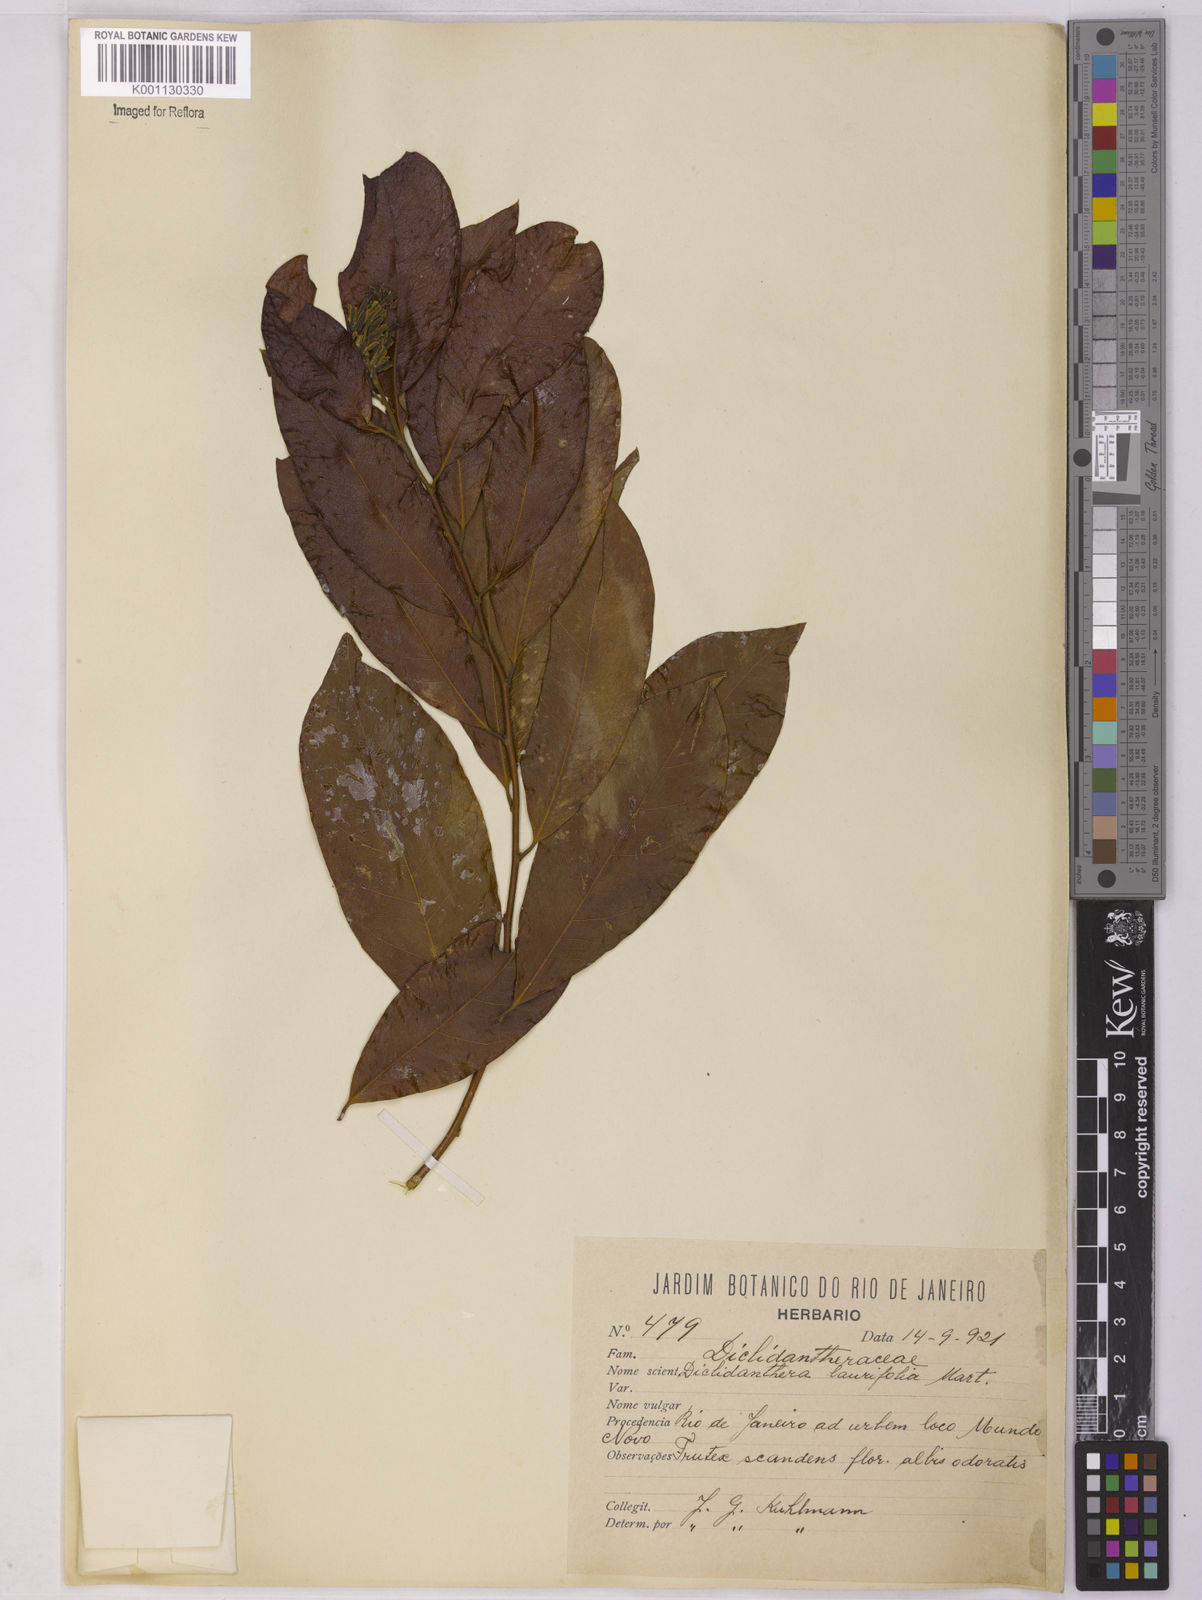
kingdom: Plantae
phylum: Tracheophyta
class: Magnoliopsida
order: Fabales
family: Polygalaceae
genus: Diclidanthera
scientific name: Diclidanthera laurifolia
